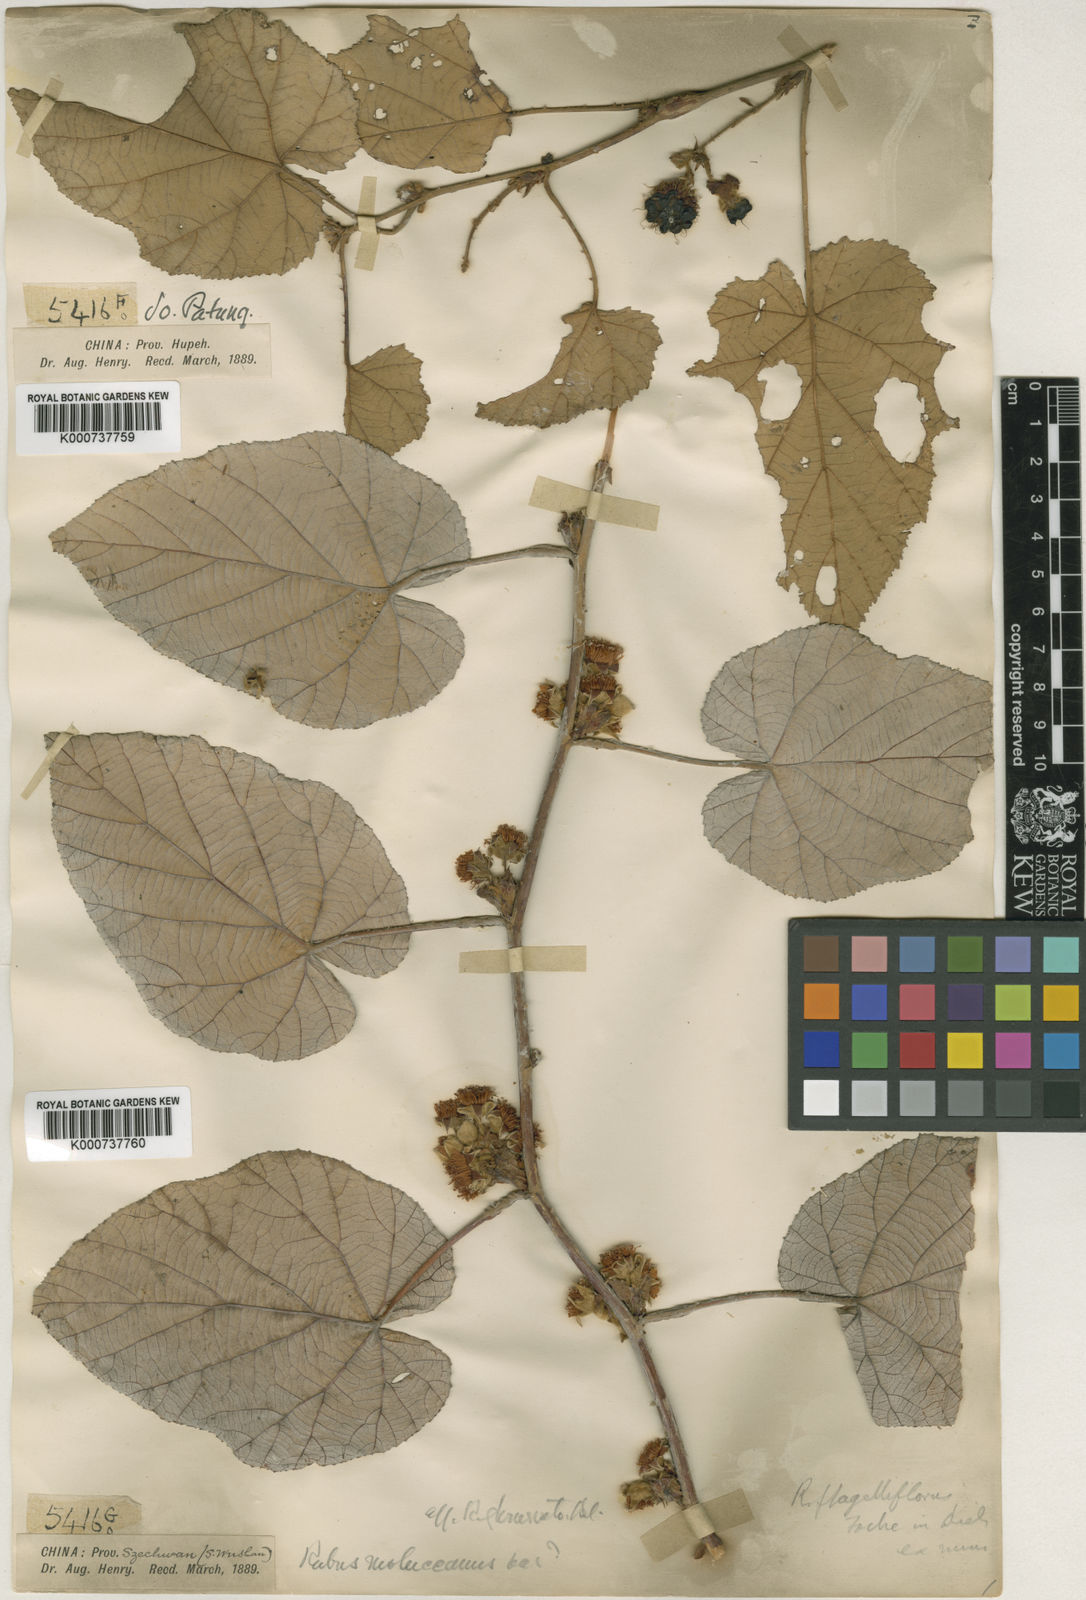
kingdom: Plantae
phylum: Tracheophyta
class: Magnoliopsida
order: Rosales
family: Rosaceae
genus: Rubus
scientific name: Rubus
